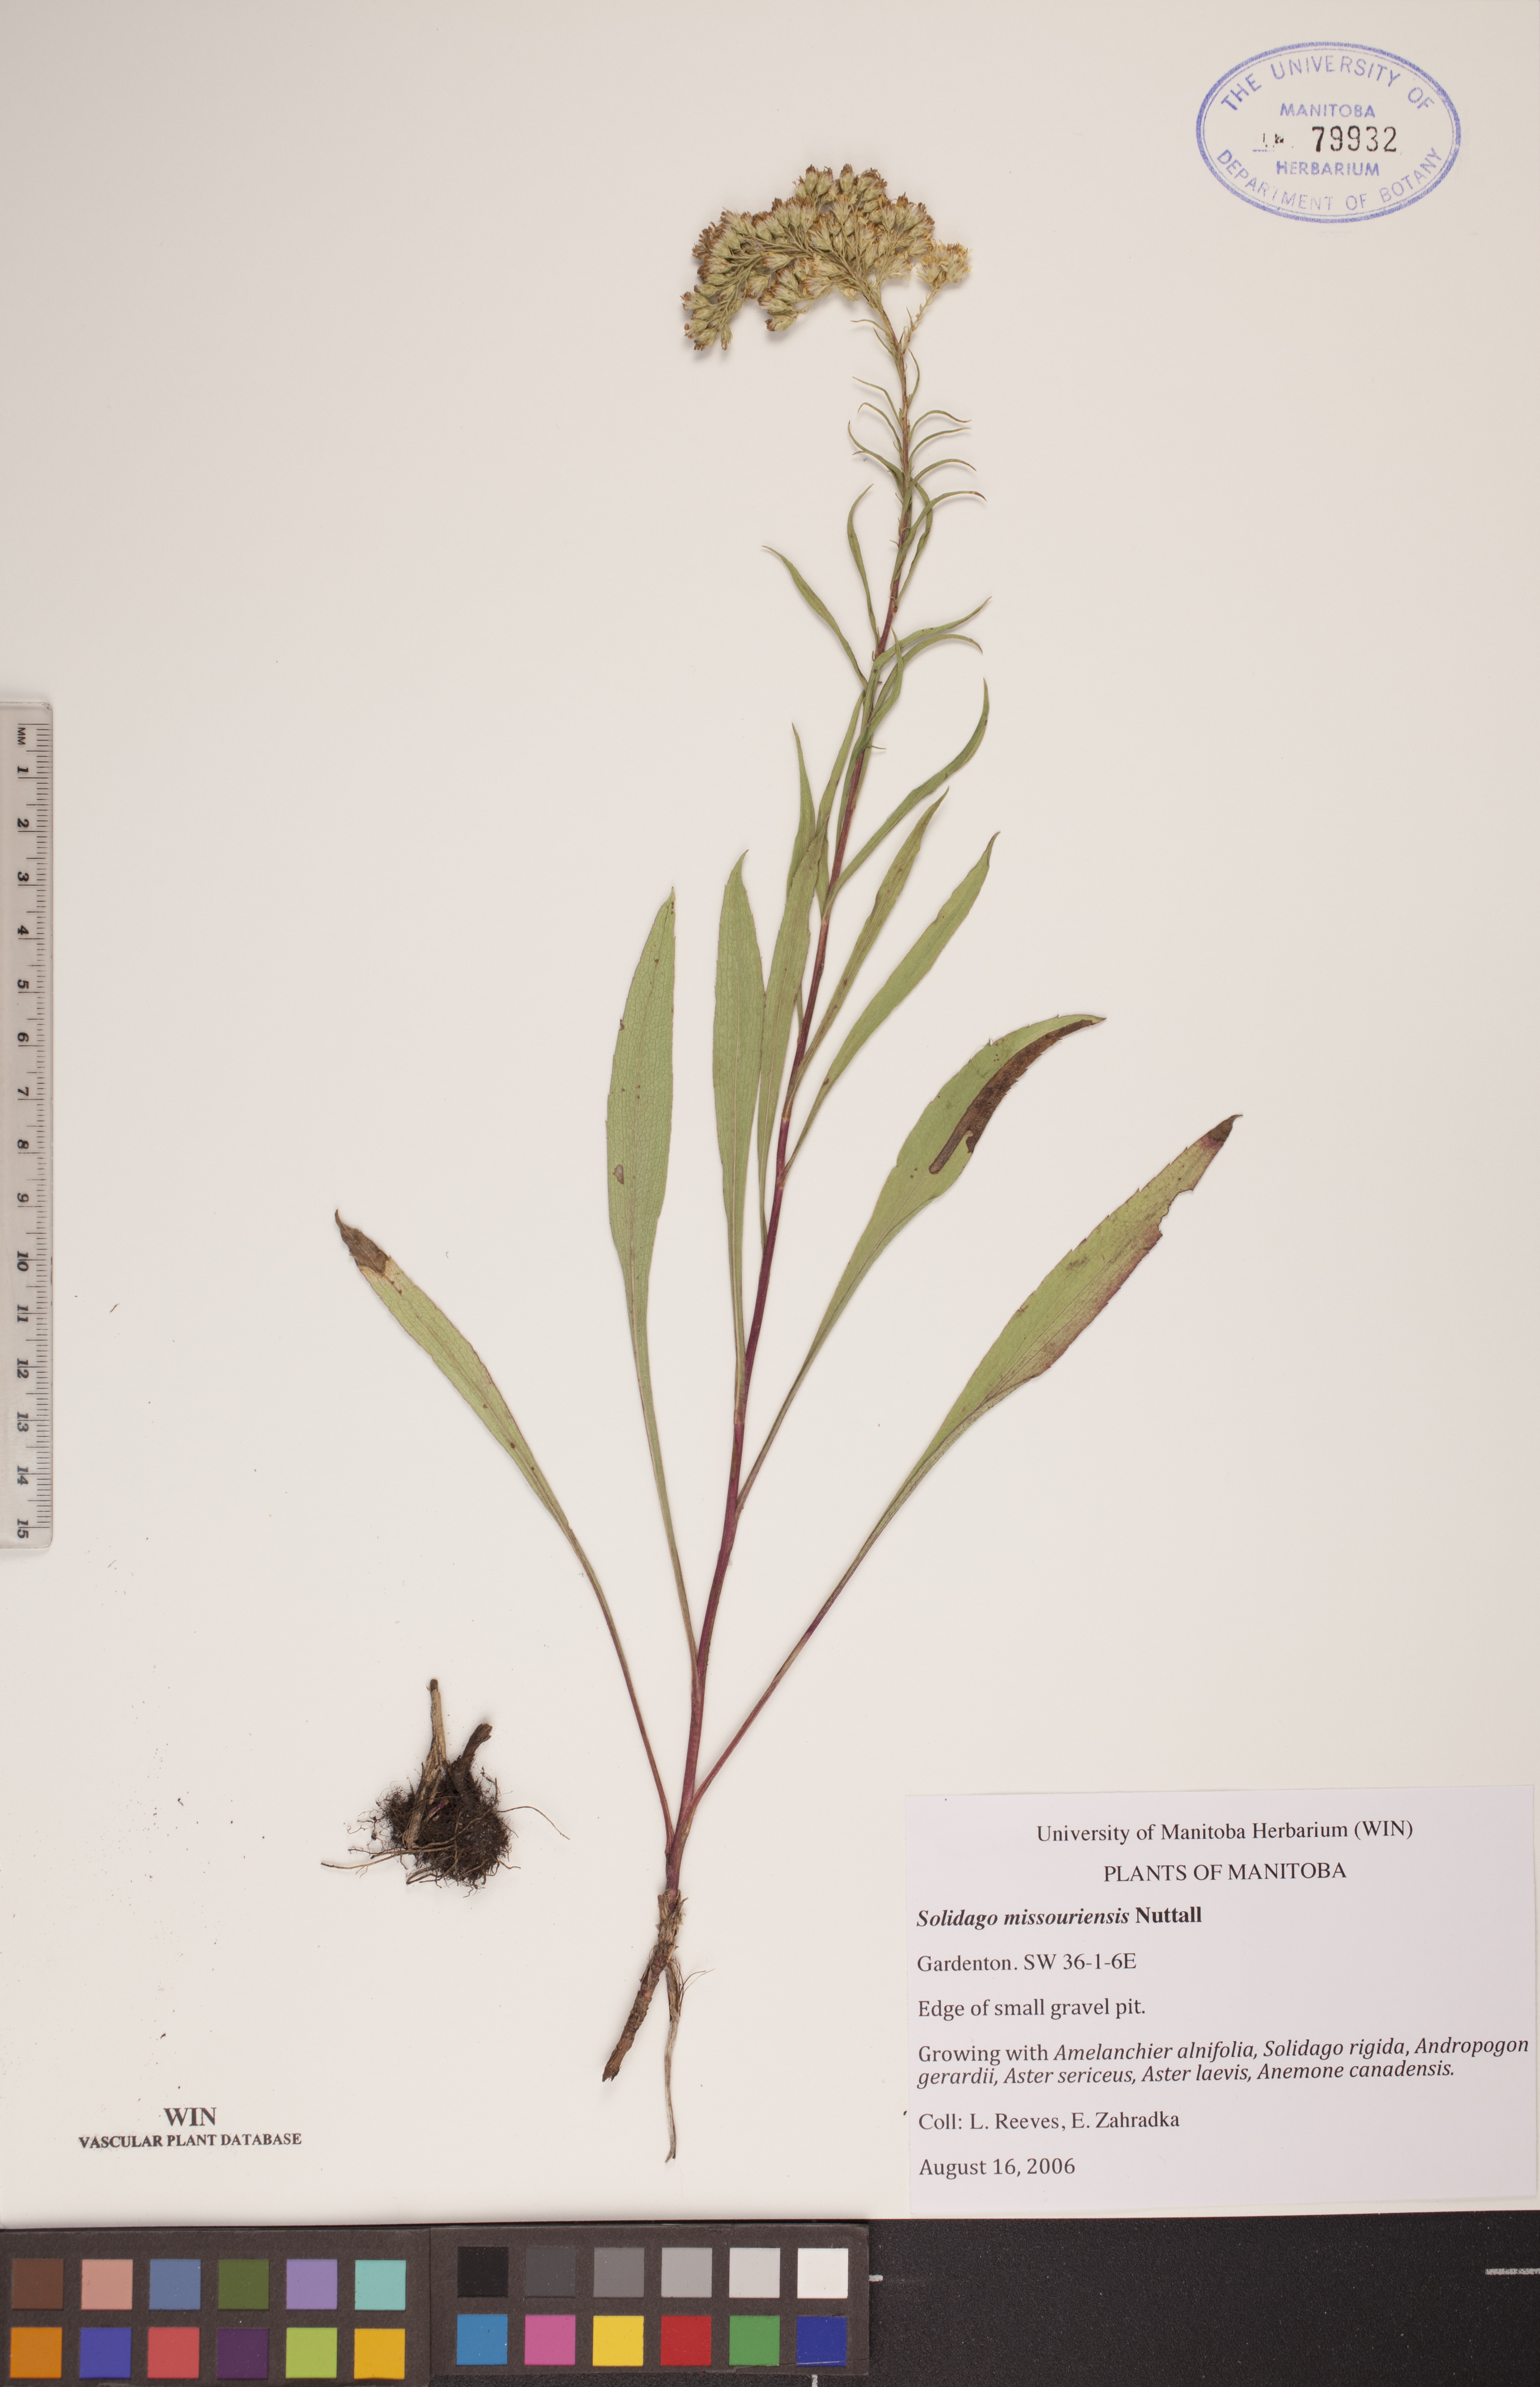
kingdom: Plantae
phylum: Tracheophyta
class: Magnoliopsida
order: Asterales
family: Asteraceae
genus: Solidago
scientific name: Solidago missouriensis
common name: Prairie goldenrod
